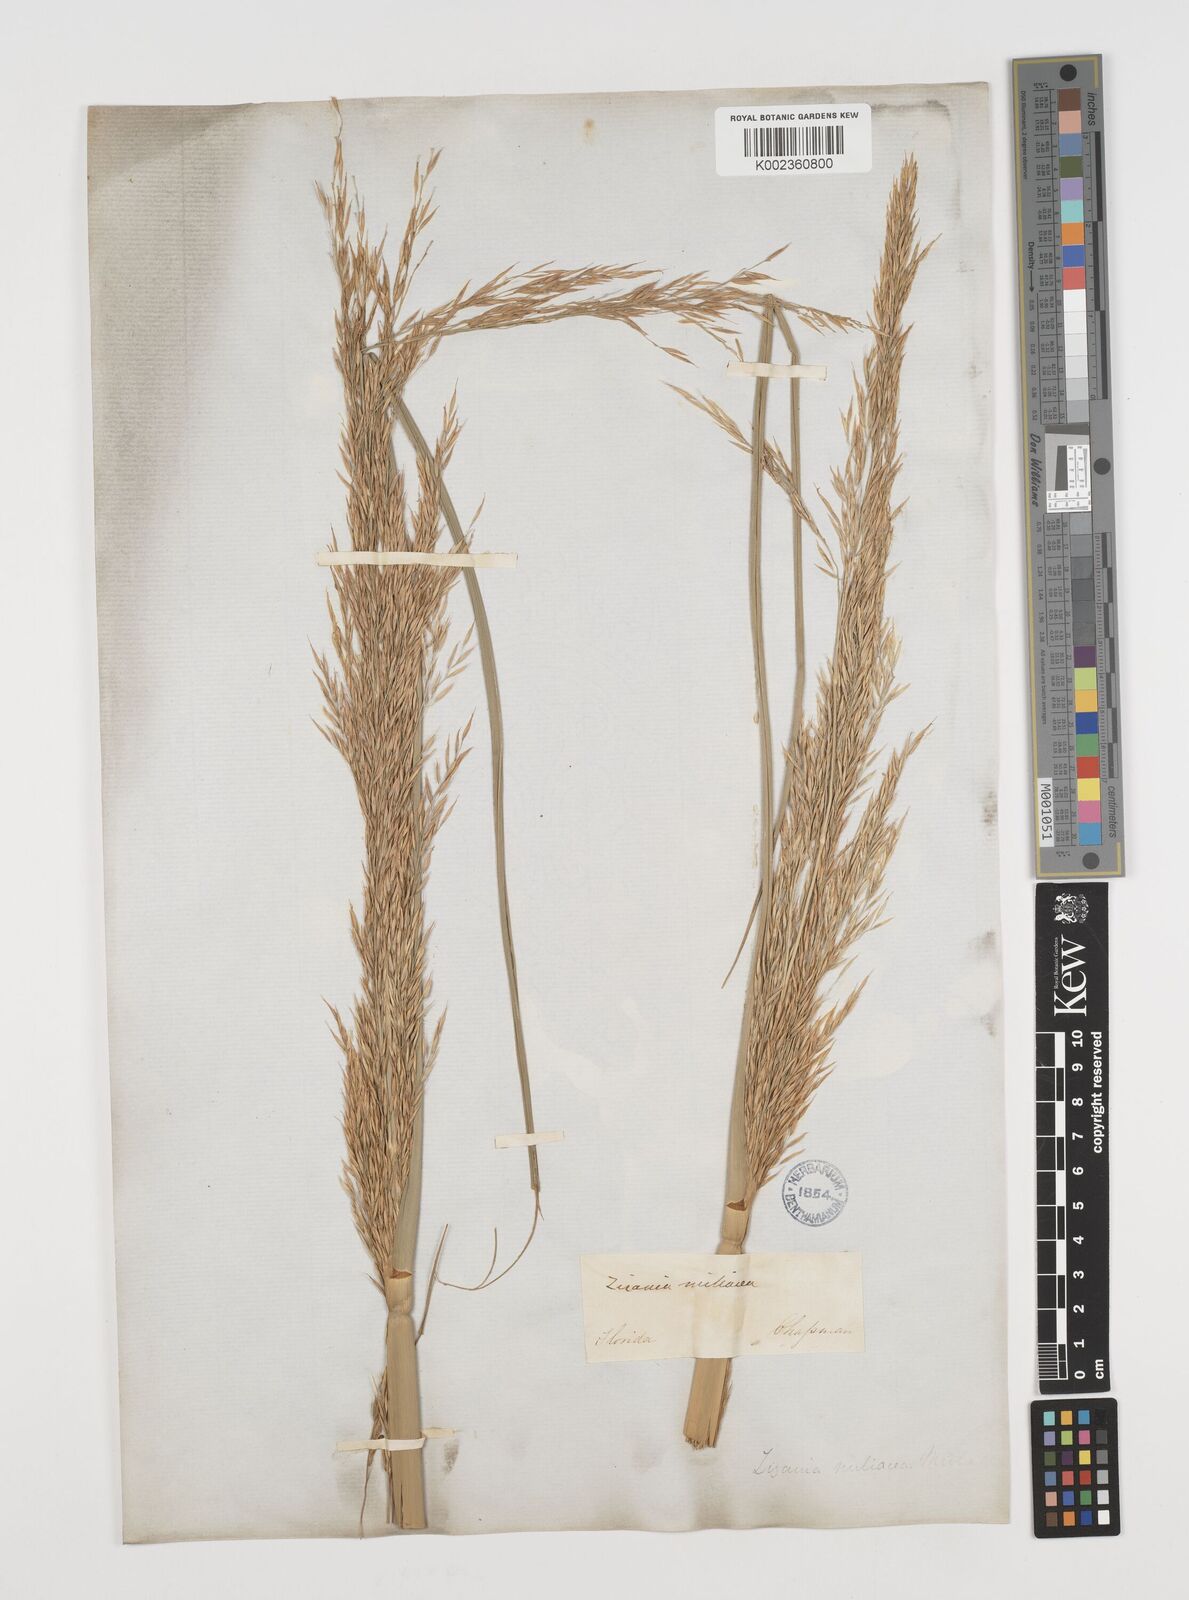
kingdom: Plantae
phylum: Tracheophyta
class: Liliopsida
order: Poales
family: Poaceae
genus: Zizaniopsis
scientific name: Zizaniopsis miliacea
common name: Giant-cutgrass
